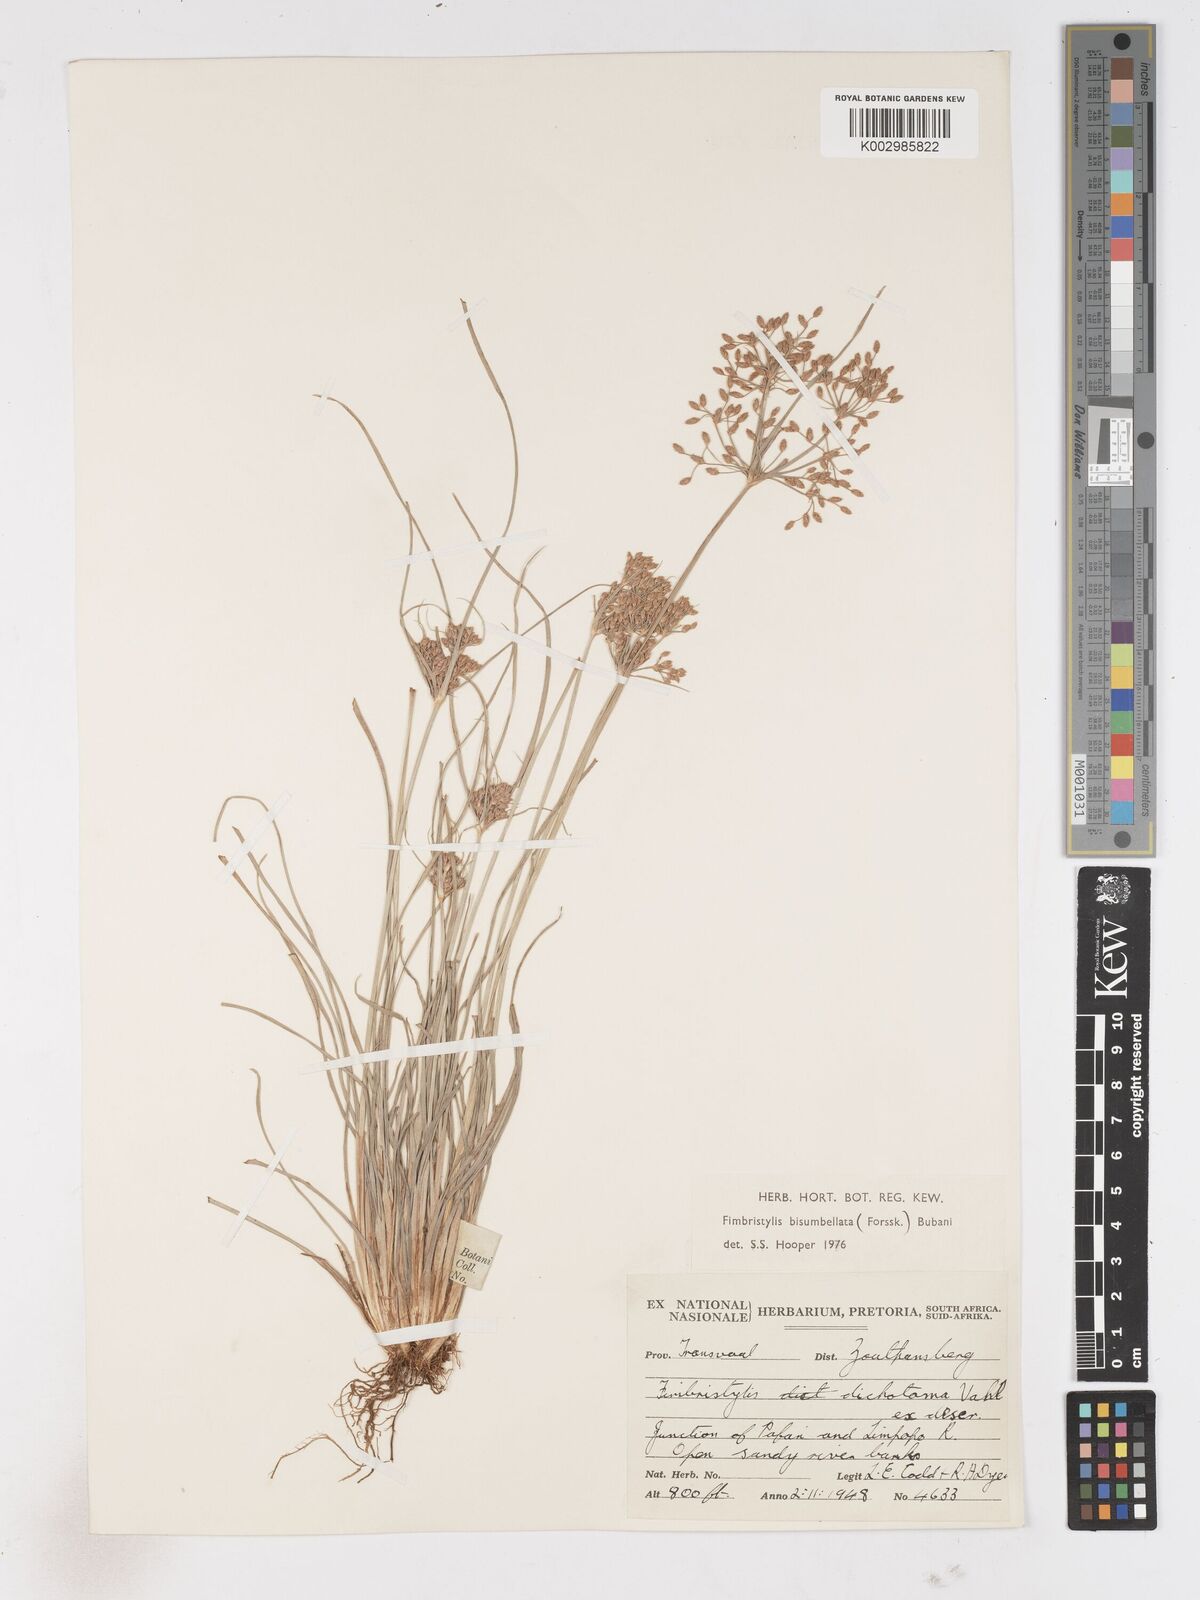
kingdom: Plantae
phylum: Tracheophyta
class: Liliopsida
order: Poales
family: Cyperaceae
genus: Fimbristylis
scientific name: Fimbristylis bisumbellata
